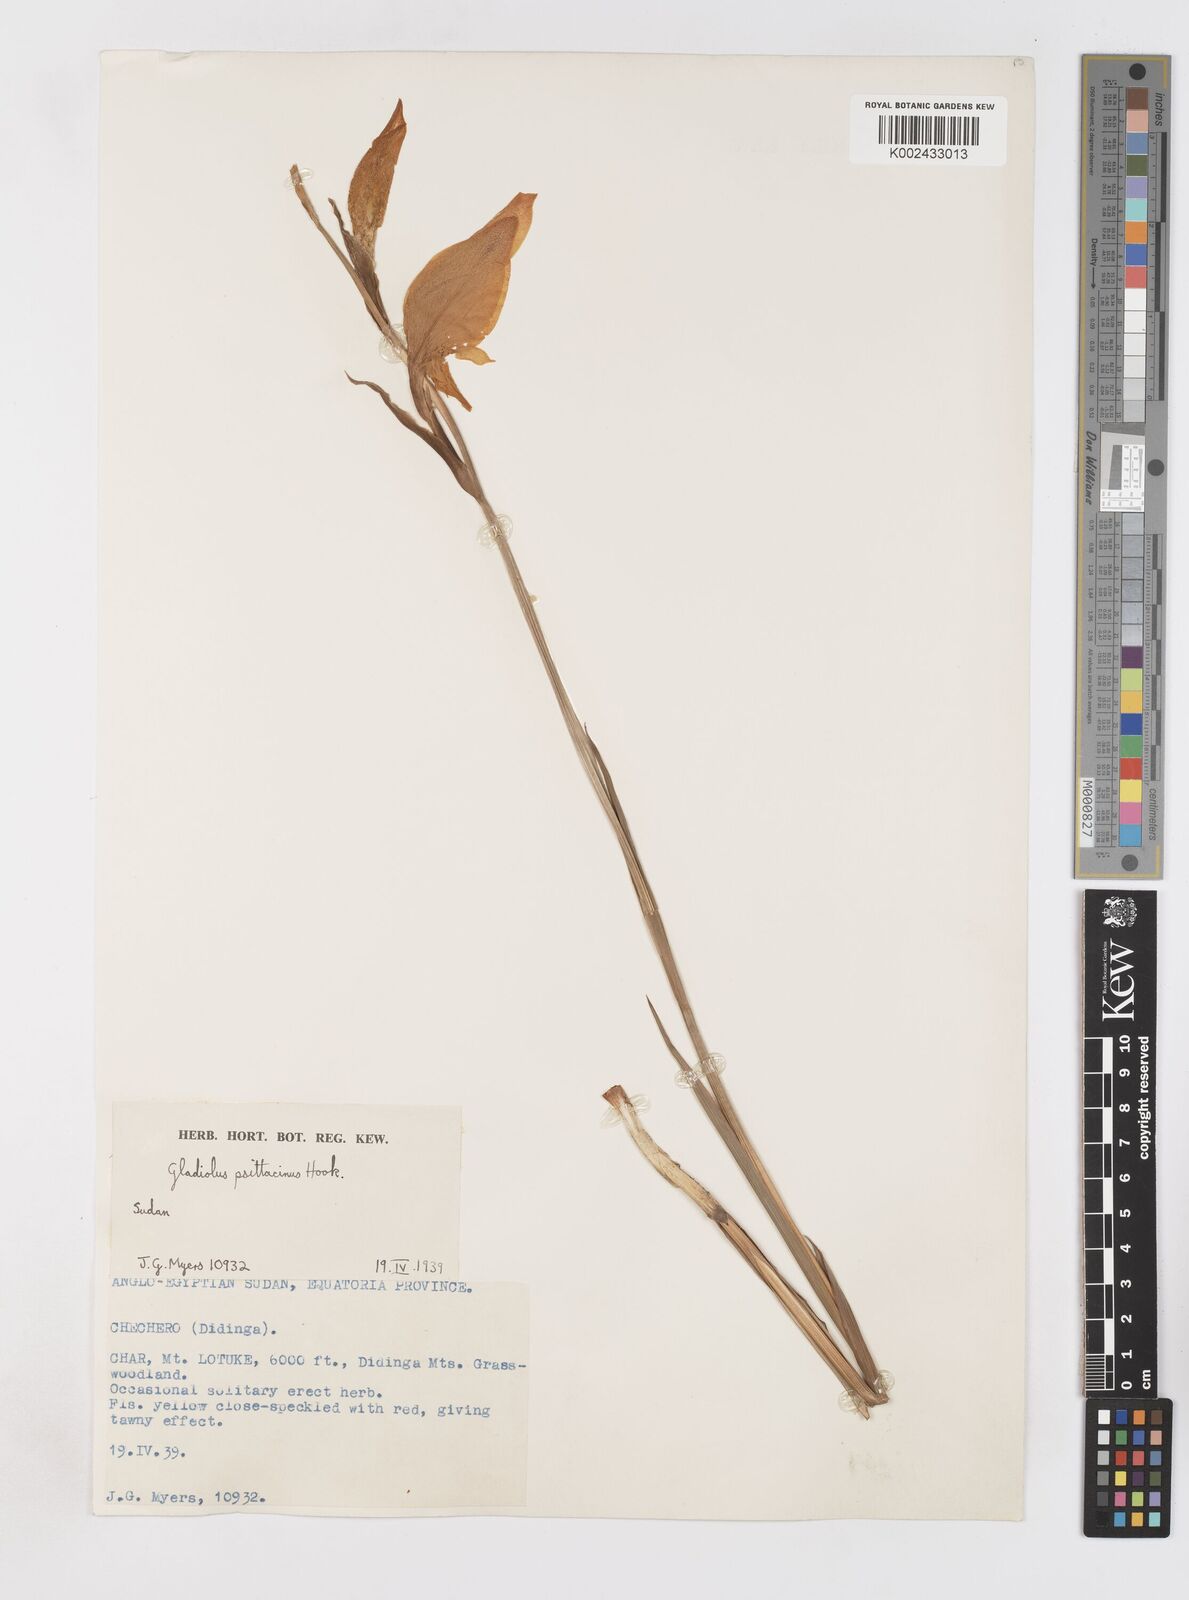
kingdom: Plantae
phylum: Tracheophyta
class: Liliopsida
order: Asparagales
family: Iridaceae
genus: Gladiolus
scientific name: Gladiolus dalenii
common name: Cornflag
